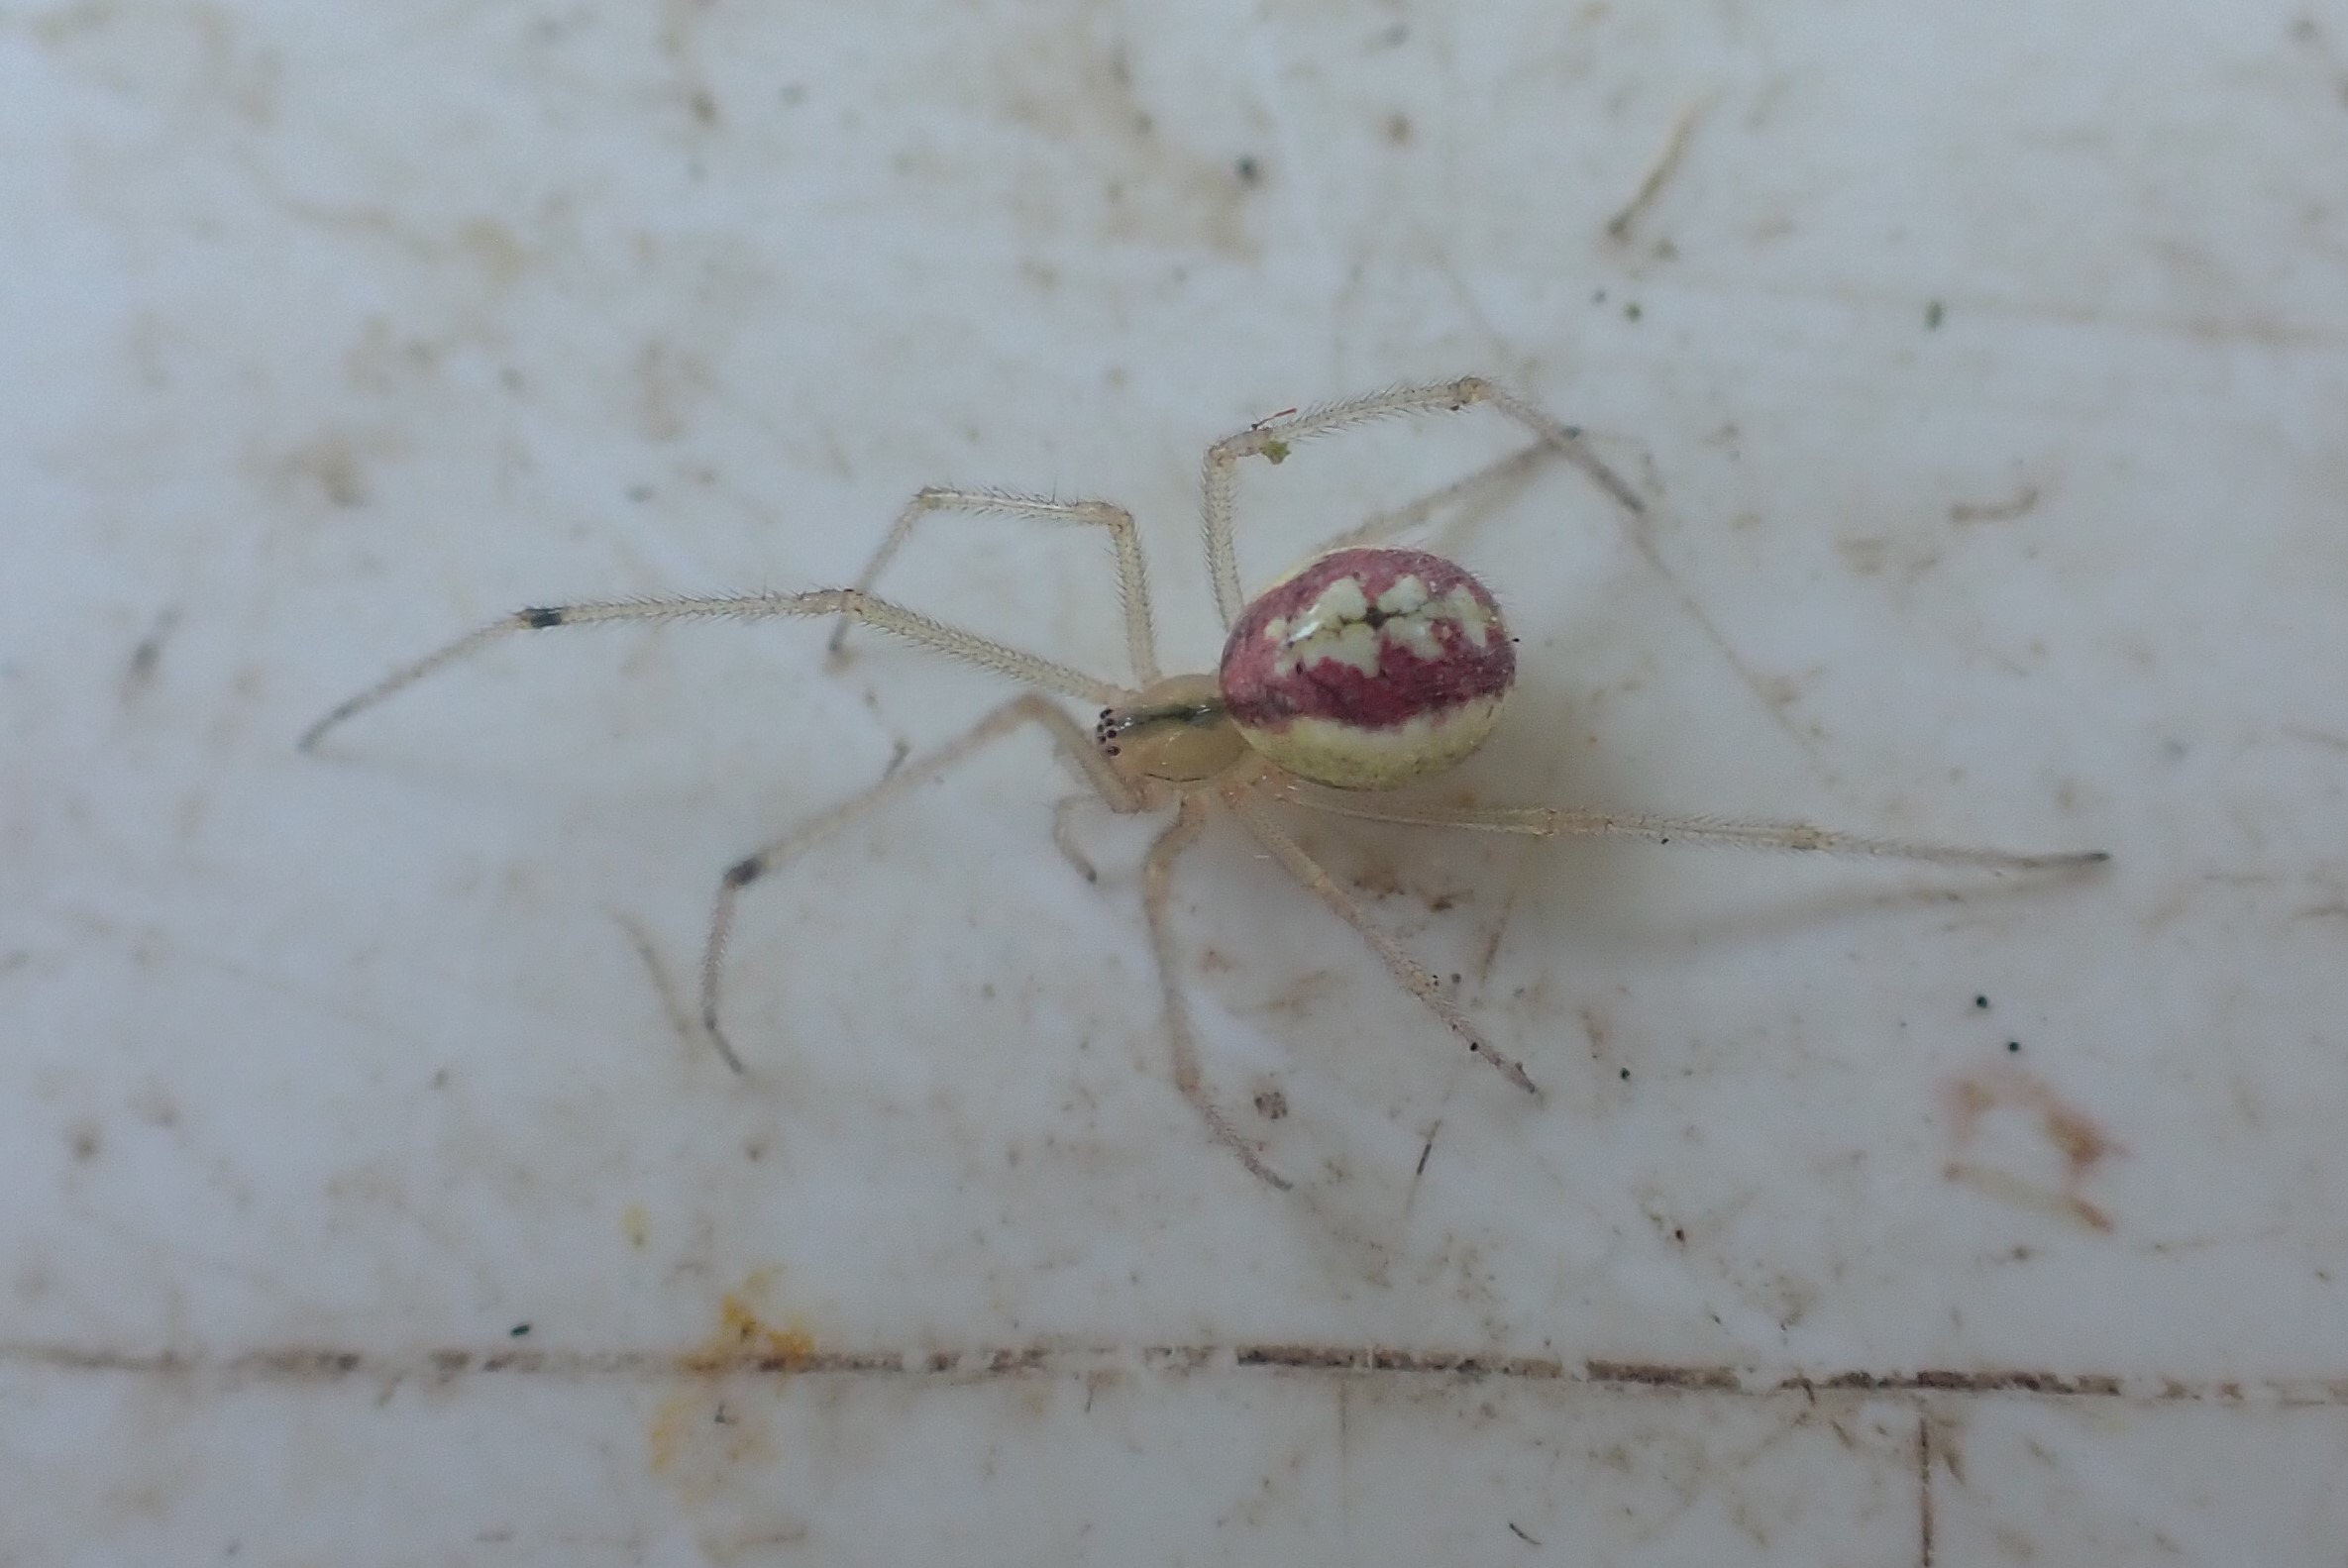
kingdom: Animalia
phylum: Arthropoda
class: Arachnida
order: Araneae
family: Theridiidae
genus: Enoplognatha
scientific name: Enoplognatha
